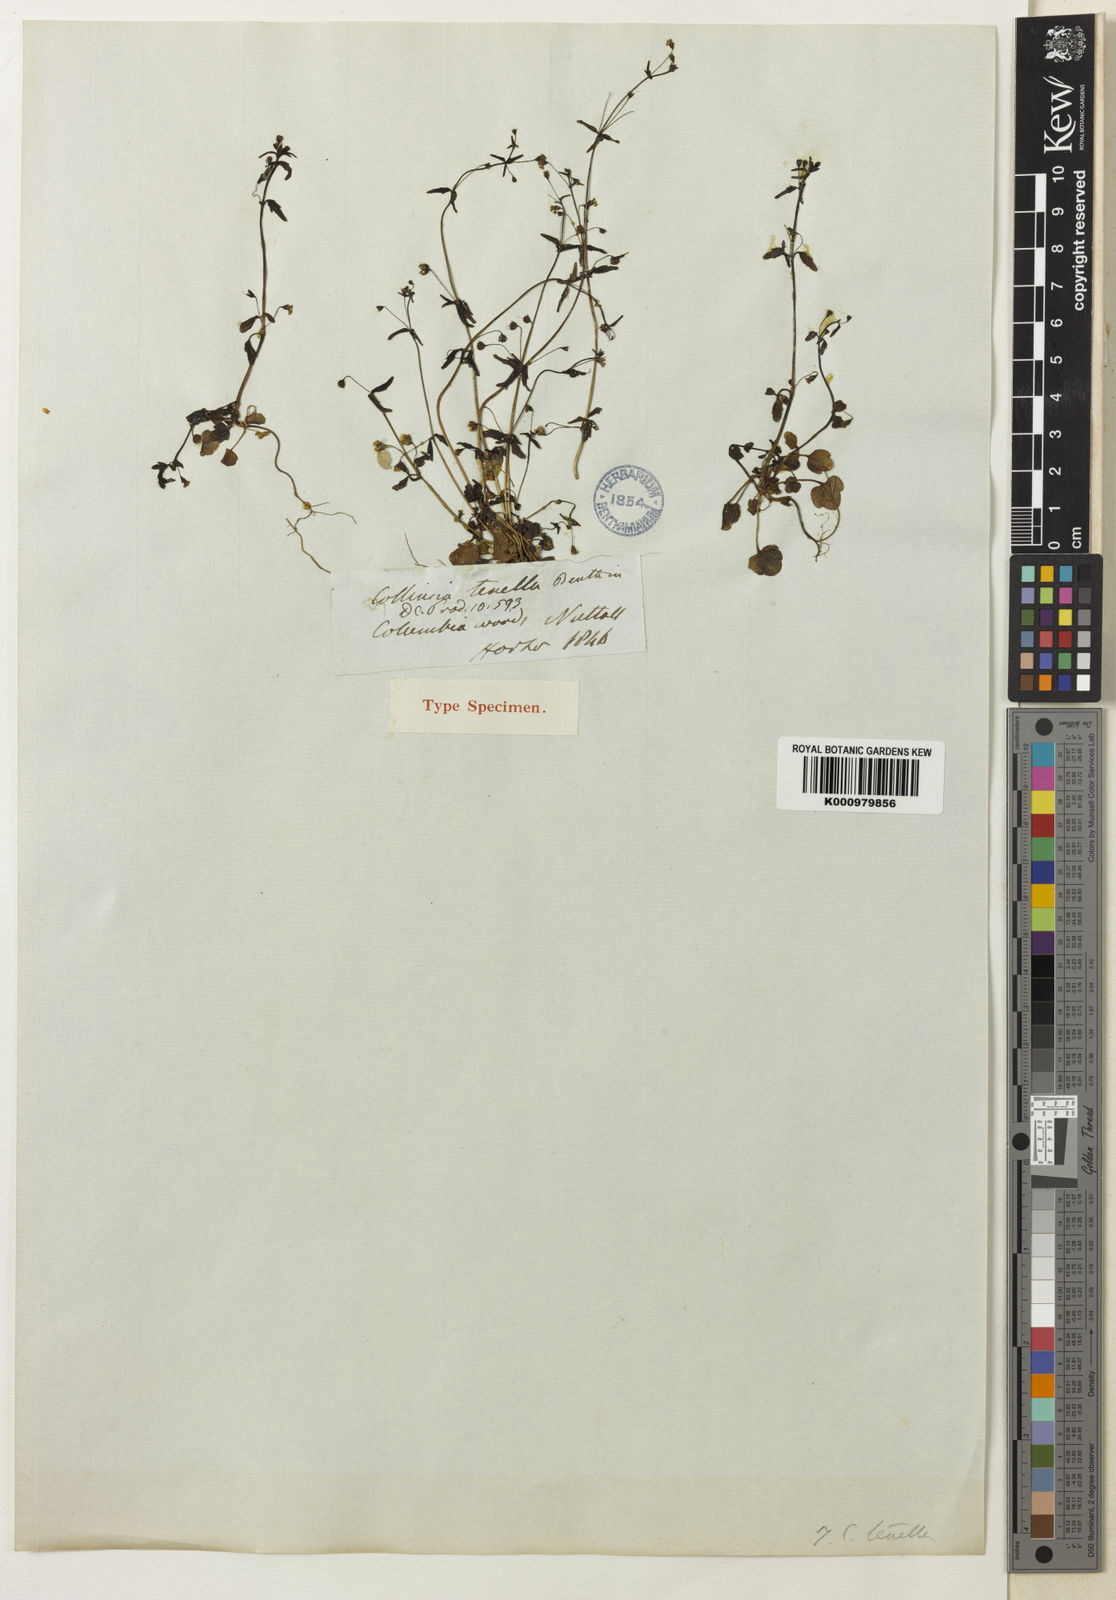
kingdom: Plantae
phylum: Tracheophyta
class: Magnoliopsida
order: Lamiales
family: Plantaginaceae
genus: Tonella
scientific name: Tonella tenella
